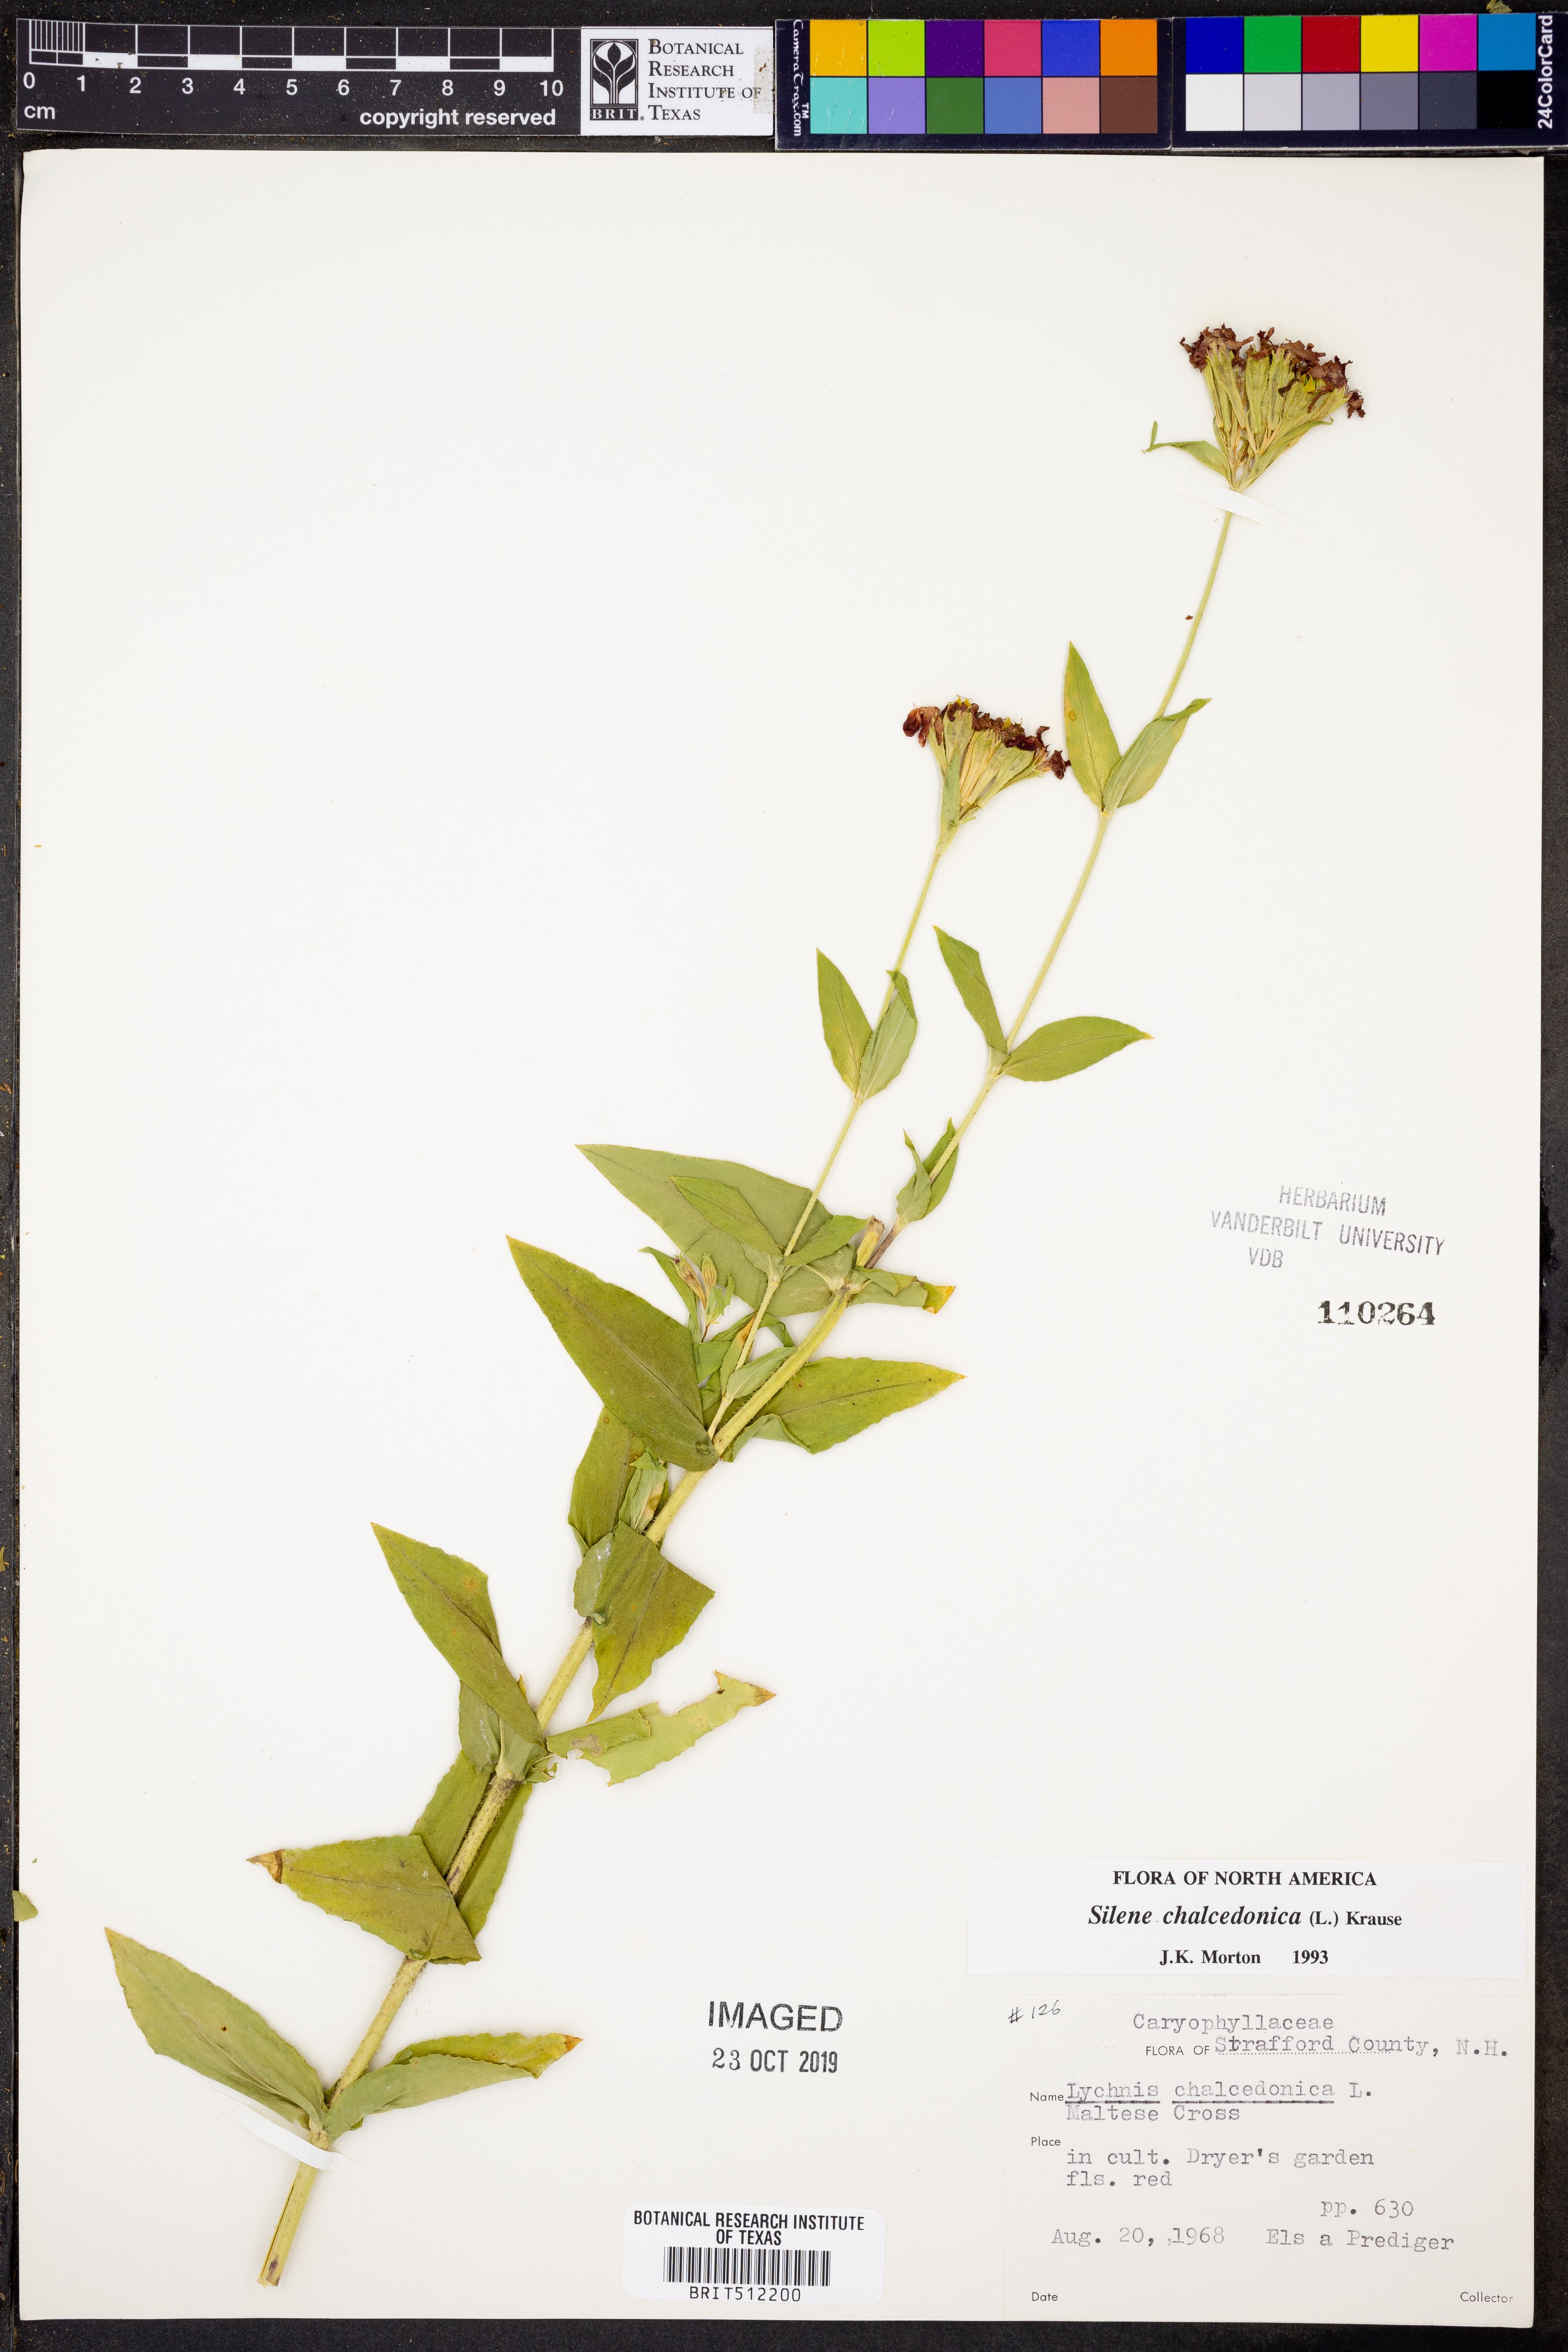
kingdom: Plantae
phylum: Tracheophyta
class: Magnoliopsida
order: Caryophyllales
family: Caryophyllaceae
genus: Silene
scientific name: Silene chalcedonica
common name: Maltese-cross
